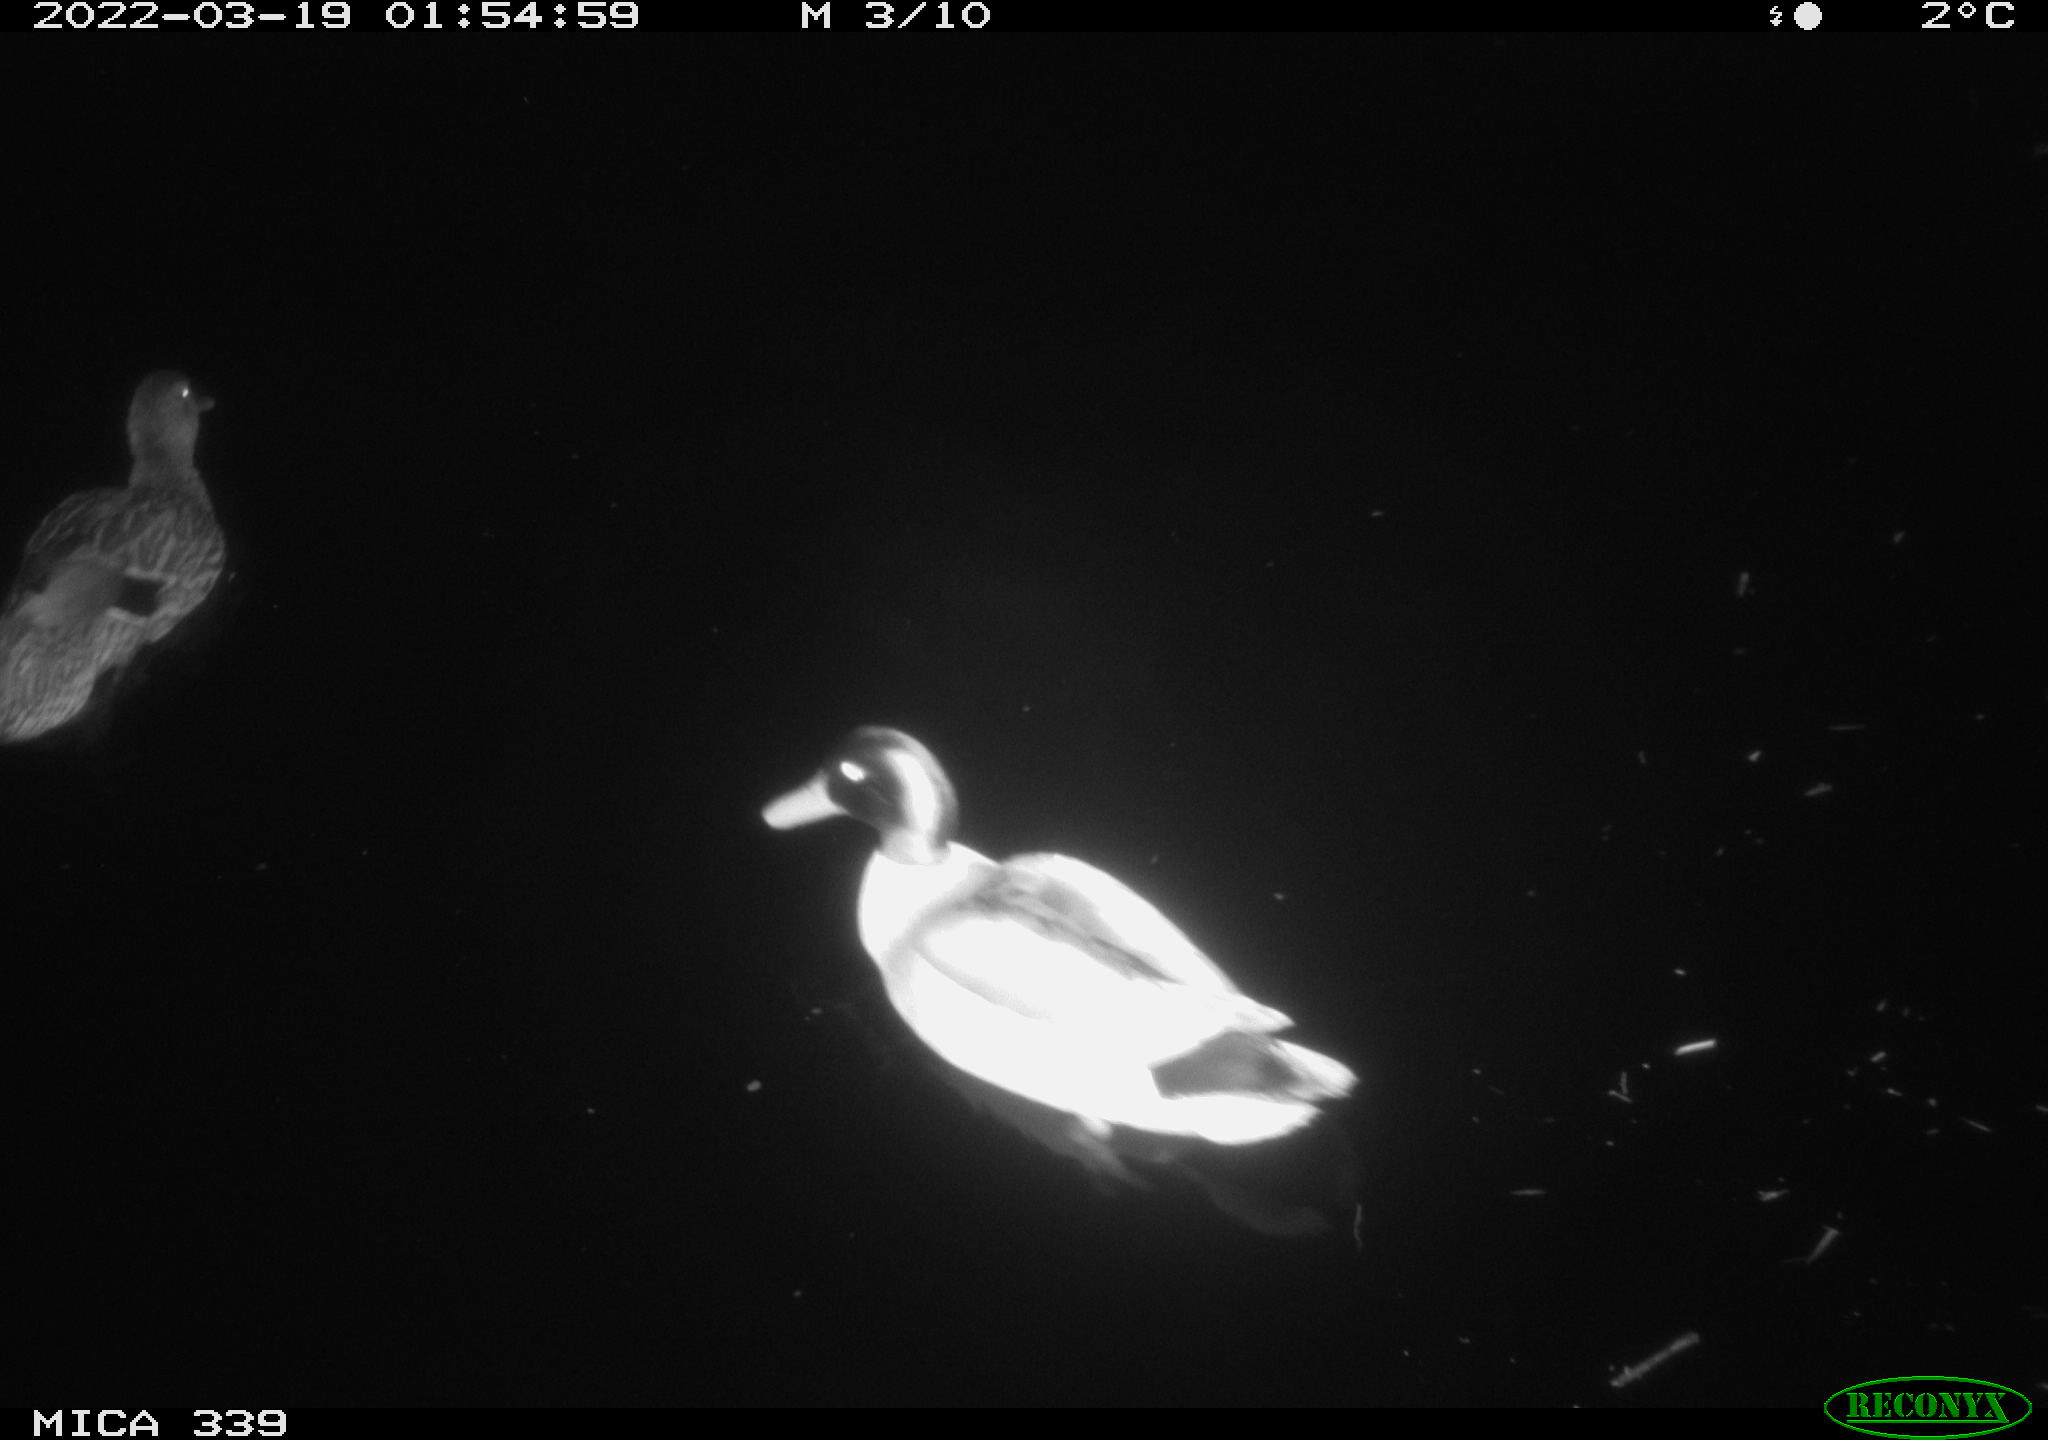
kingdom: Animalia
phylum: Chordata
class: Aves
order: Anseriformes
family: Anatidae
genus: Anas
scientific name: Anas platyrhynchos
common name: Mallard
